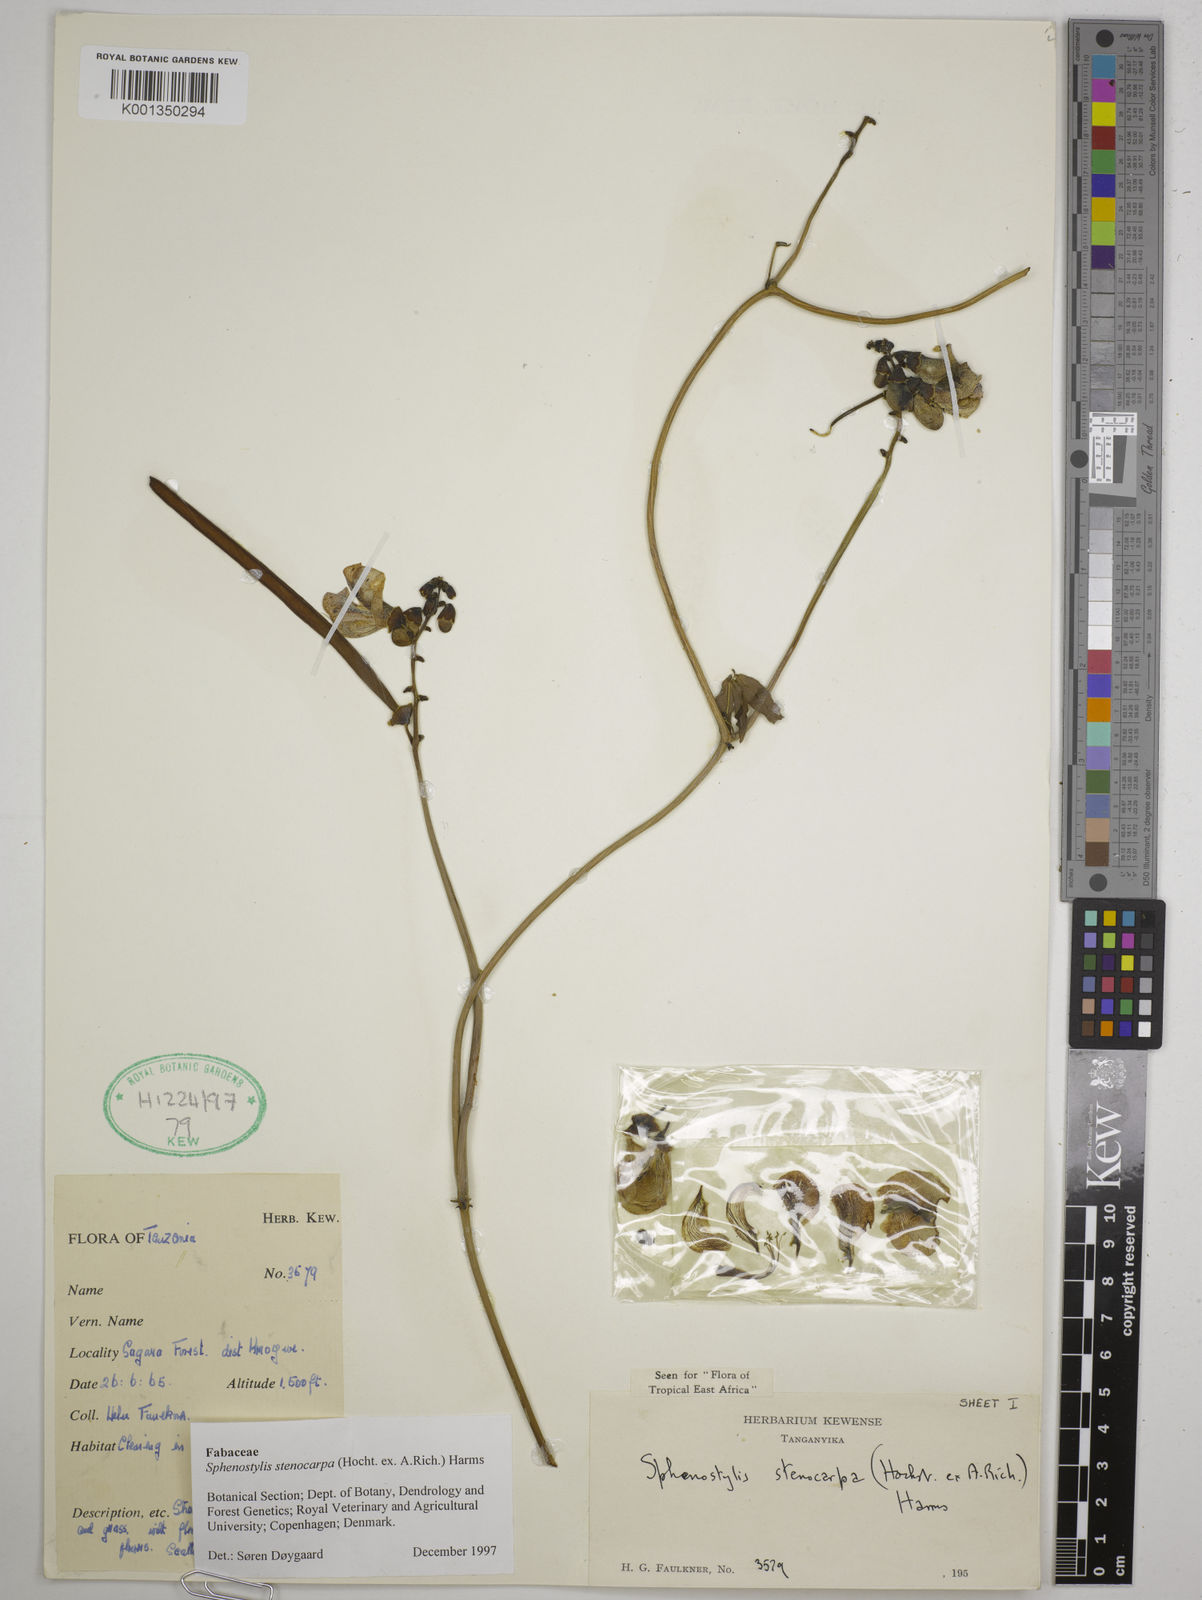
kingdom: Plantae
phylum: Tracheophyta
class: Magnoliopsida
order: Fabales
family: Fabaceae
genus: Sphenostylis
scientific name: Sphenostylis stenocarpa
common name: Yam-pea
